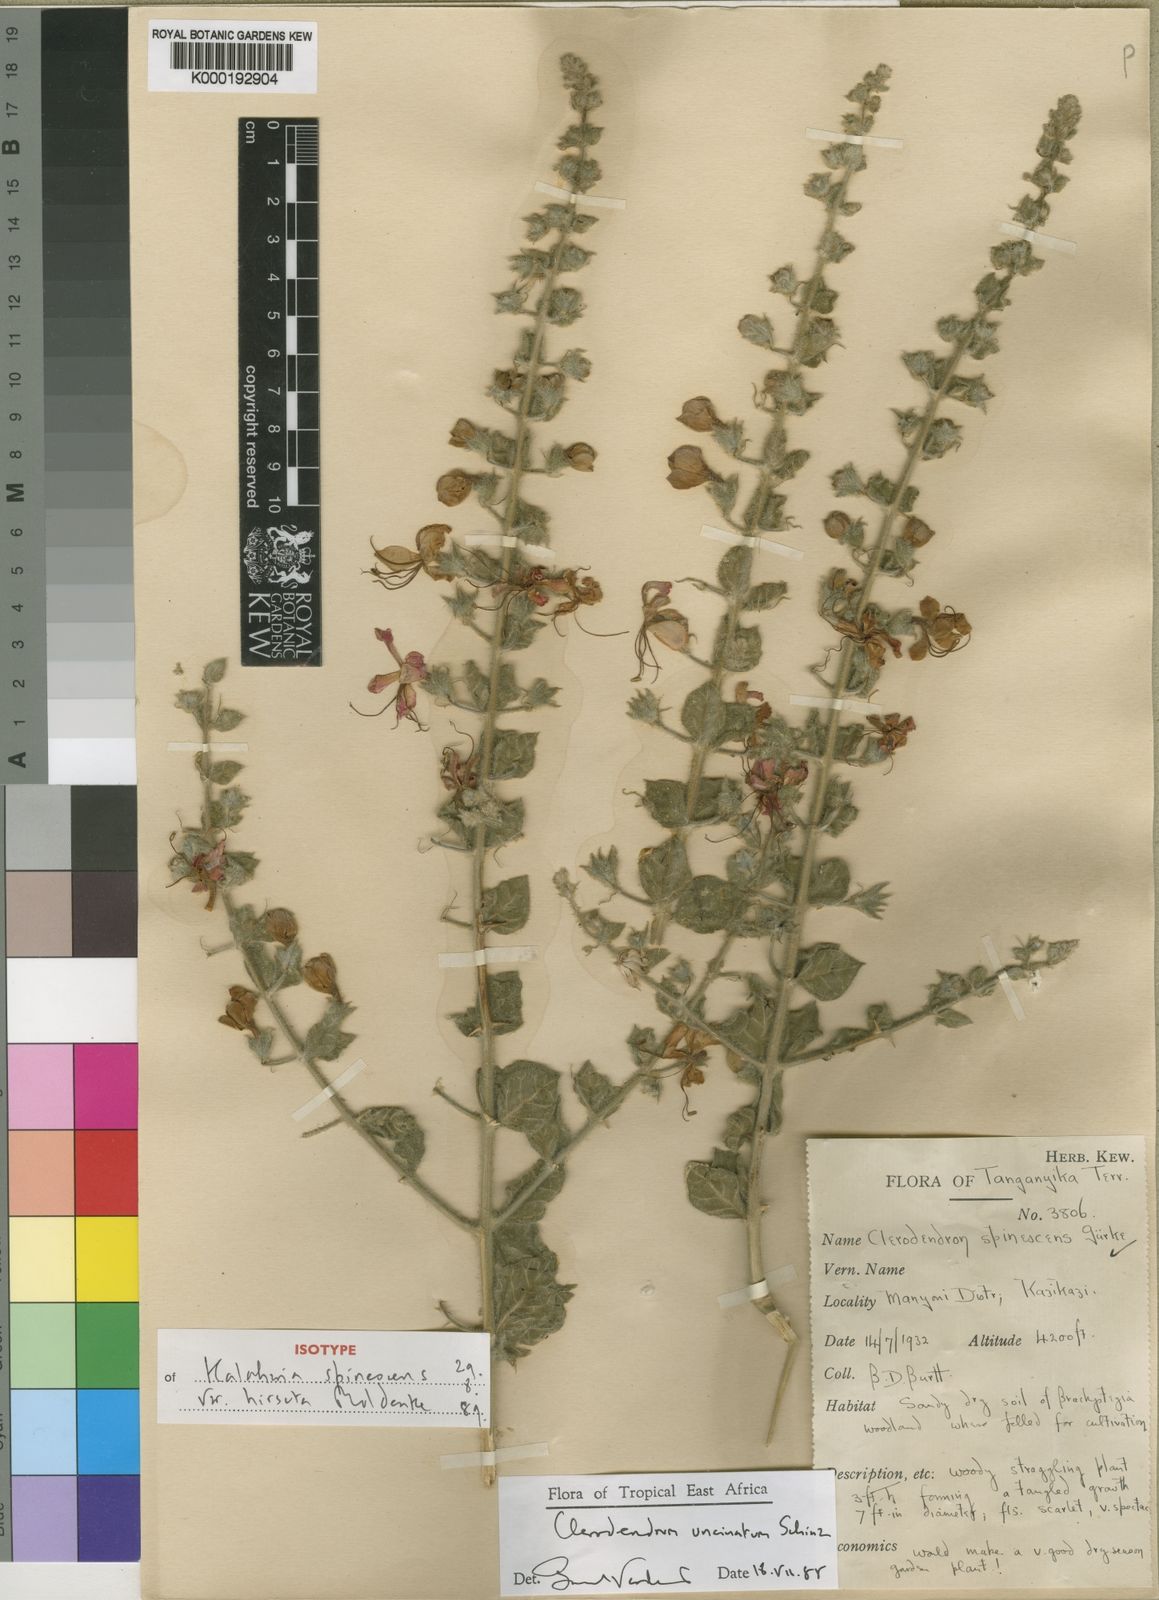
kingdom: Plantae
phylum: Tracheophyta
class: Magnoliopsida
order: Lamiales
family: Lamiaceae
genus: Clerodendrum
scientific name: Clerodendrum
